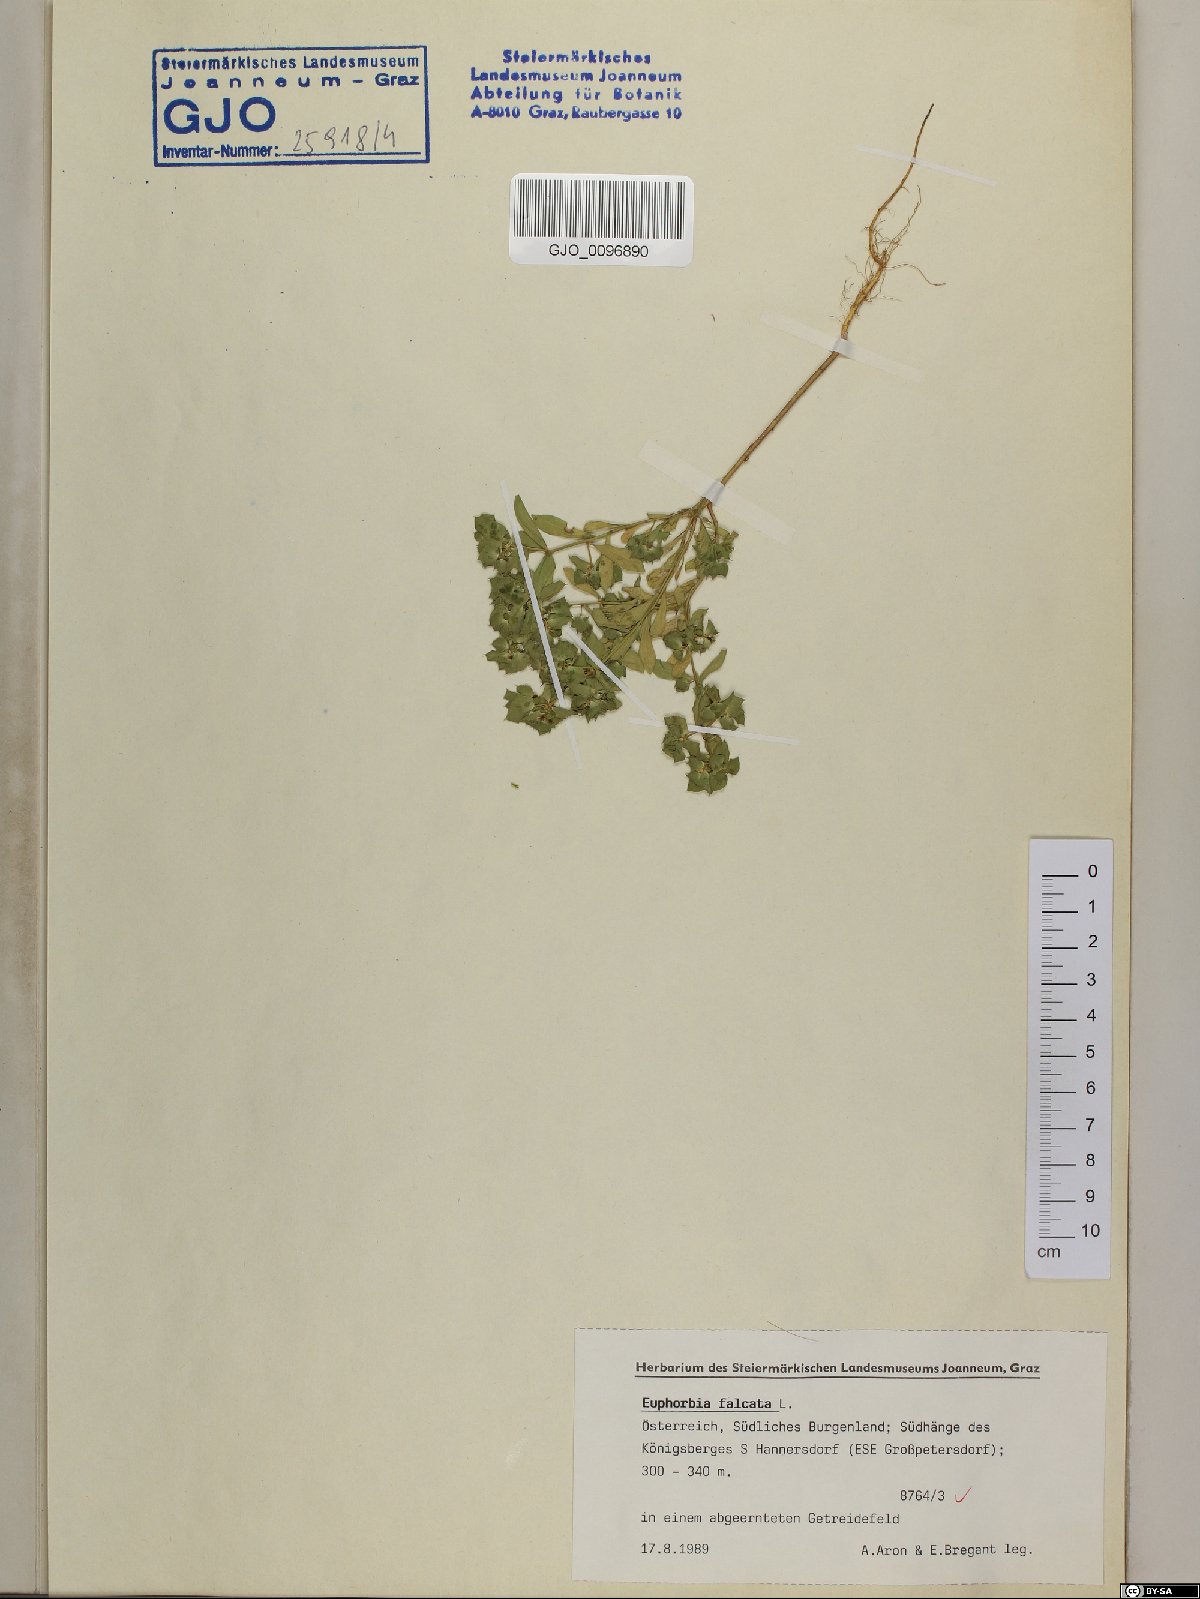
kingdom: Plantae
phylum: Tracheophyta
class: Magnoliopsida
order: Malpighiales
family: Euphorbiaceae
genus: Euphorbia
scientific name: Euphorbia falcata
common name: Sickle spurge
